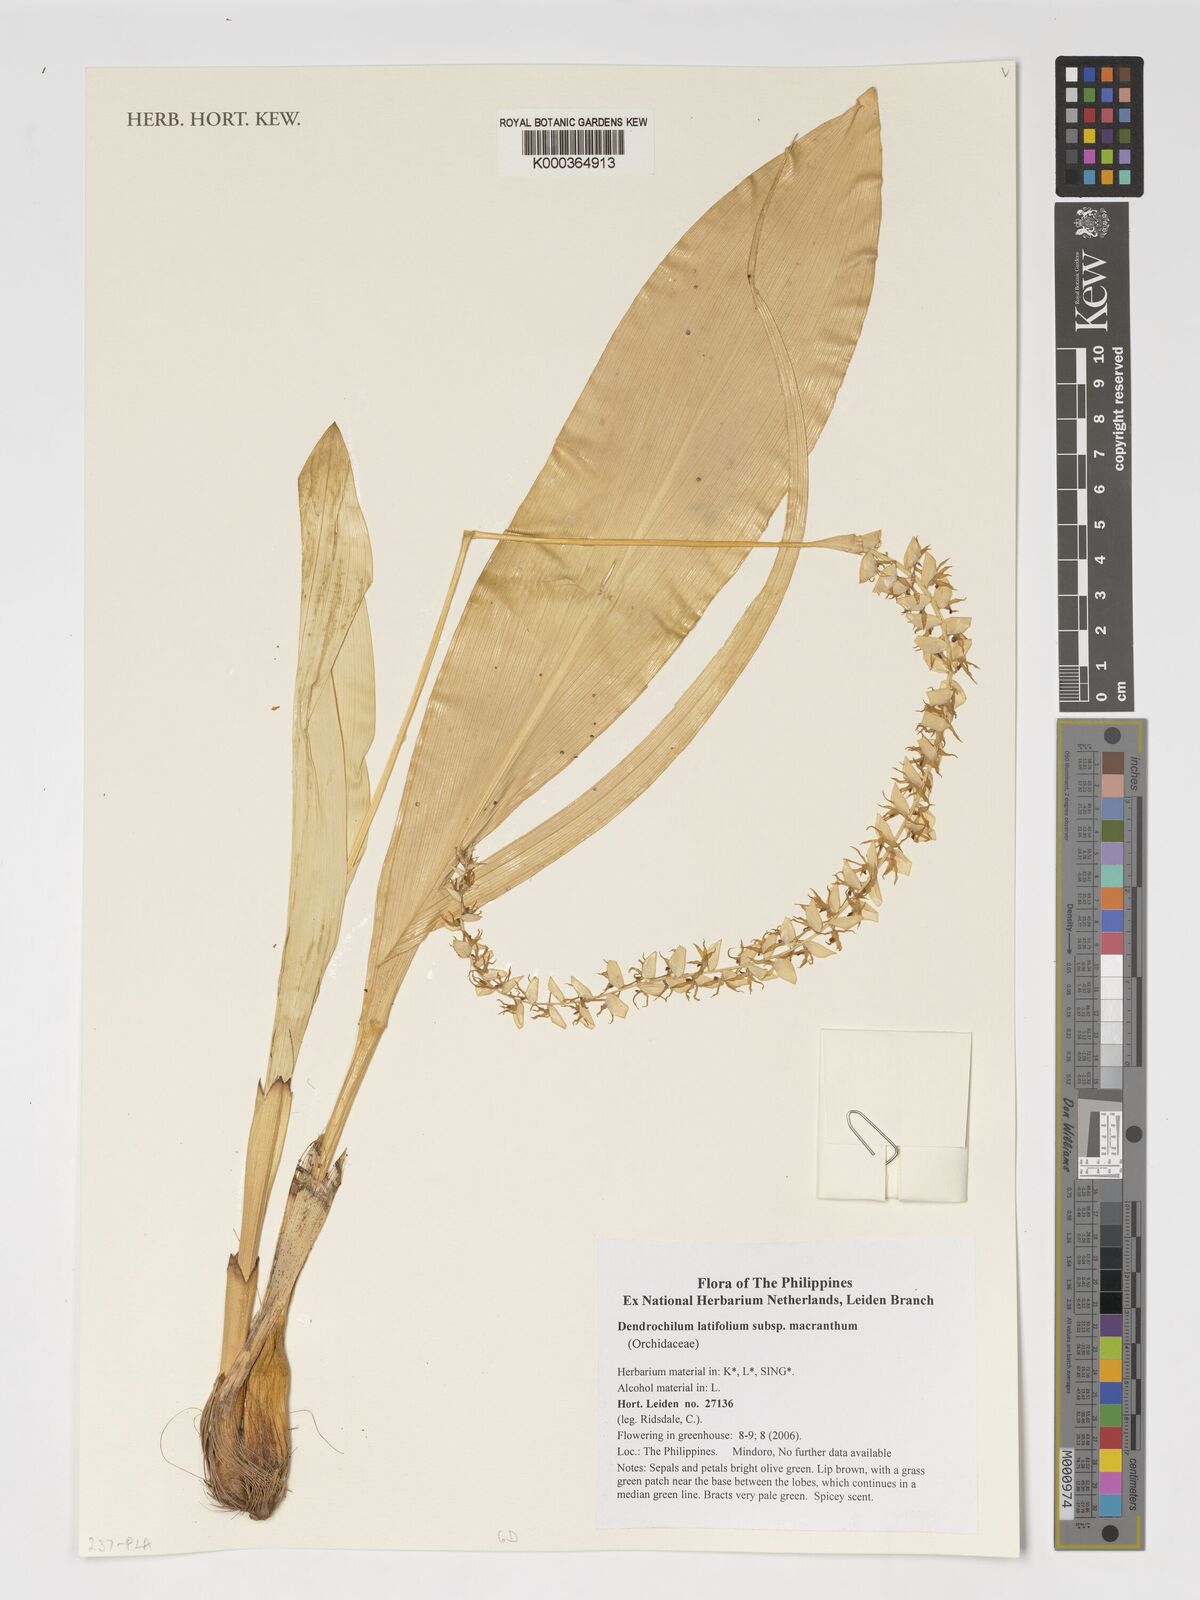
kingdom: Plantae
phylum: Tracheophyta
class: Liliopsida
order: Asparagales
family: Orchidaceae
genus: Coelogyne
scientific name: Coelogyne latifolia
